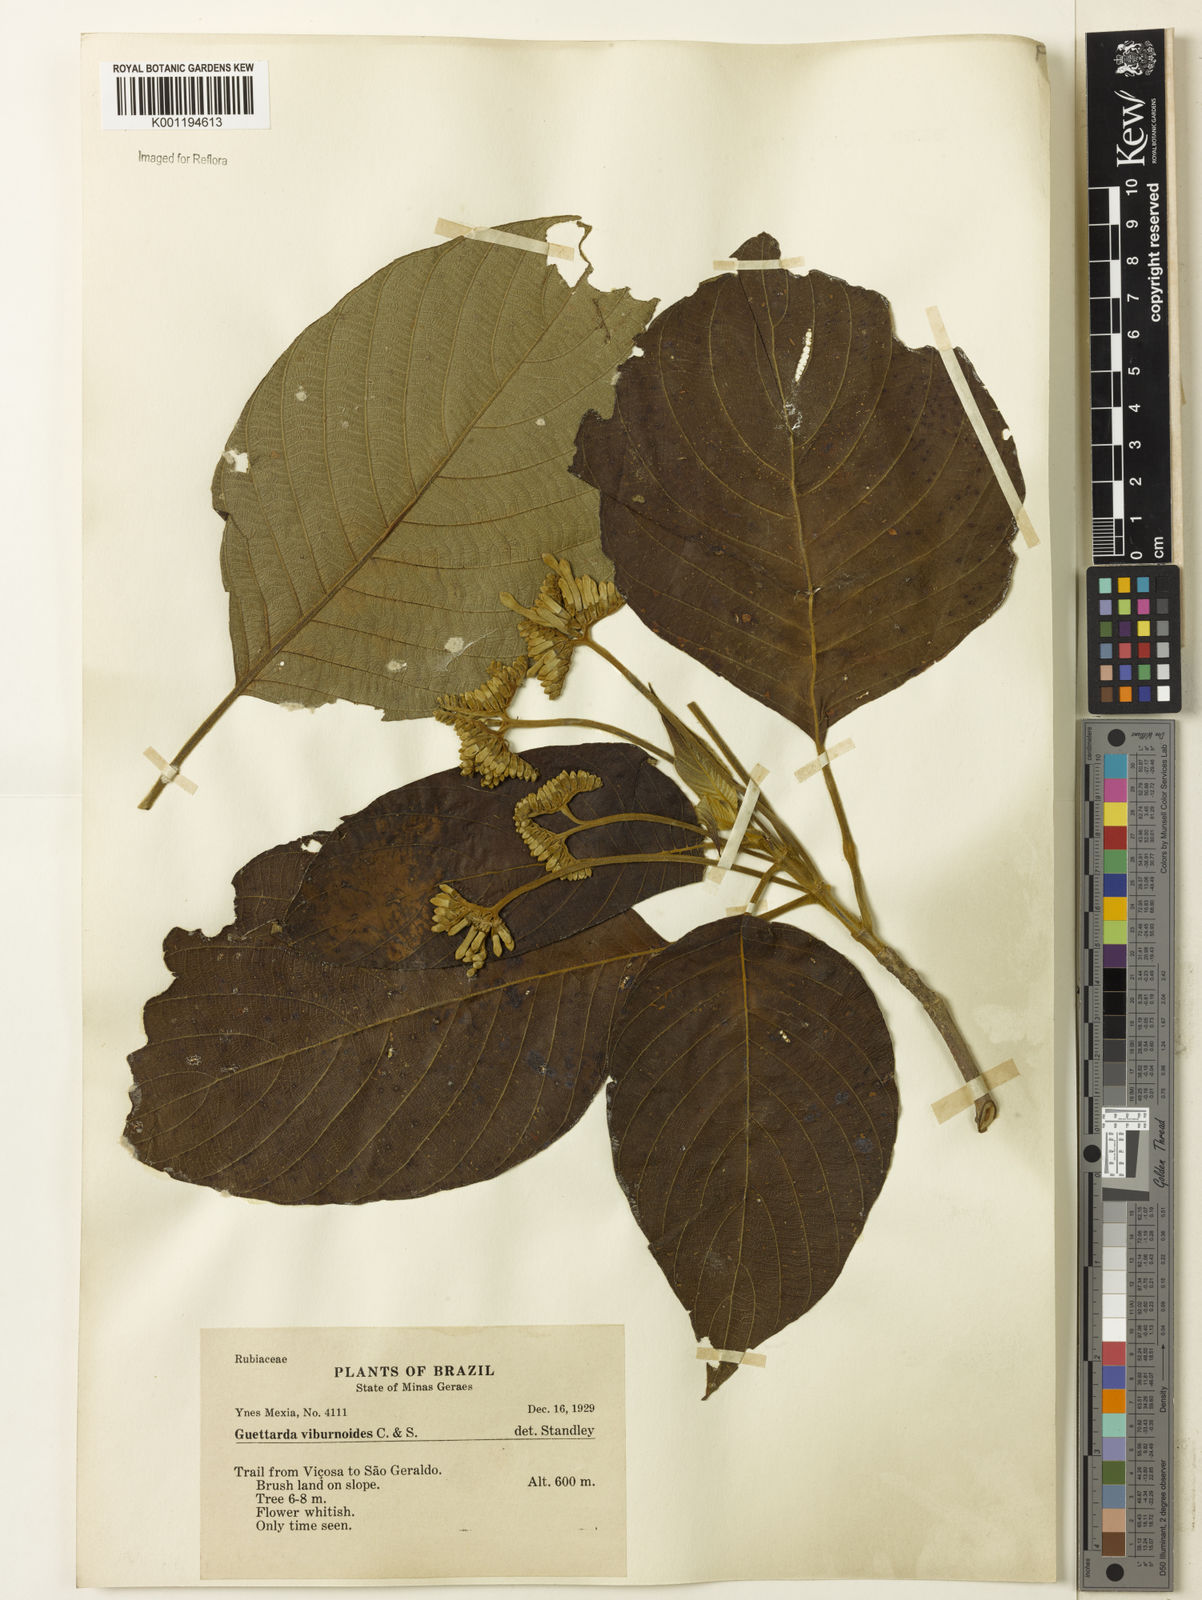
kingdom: Plantae
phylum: Tracheophyta
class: Magnoliopsida
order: Gentianales
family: Rubiaceae
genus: Guettarda
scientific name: Guettarda viburnoides
